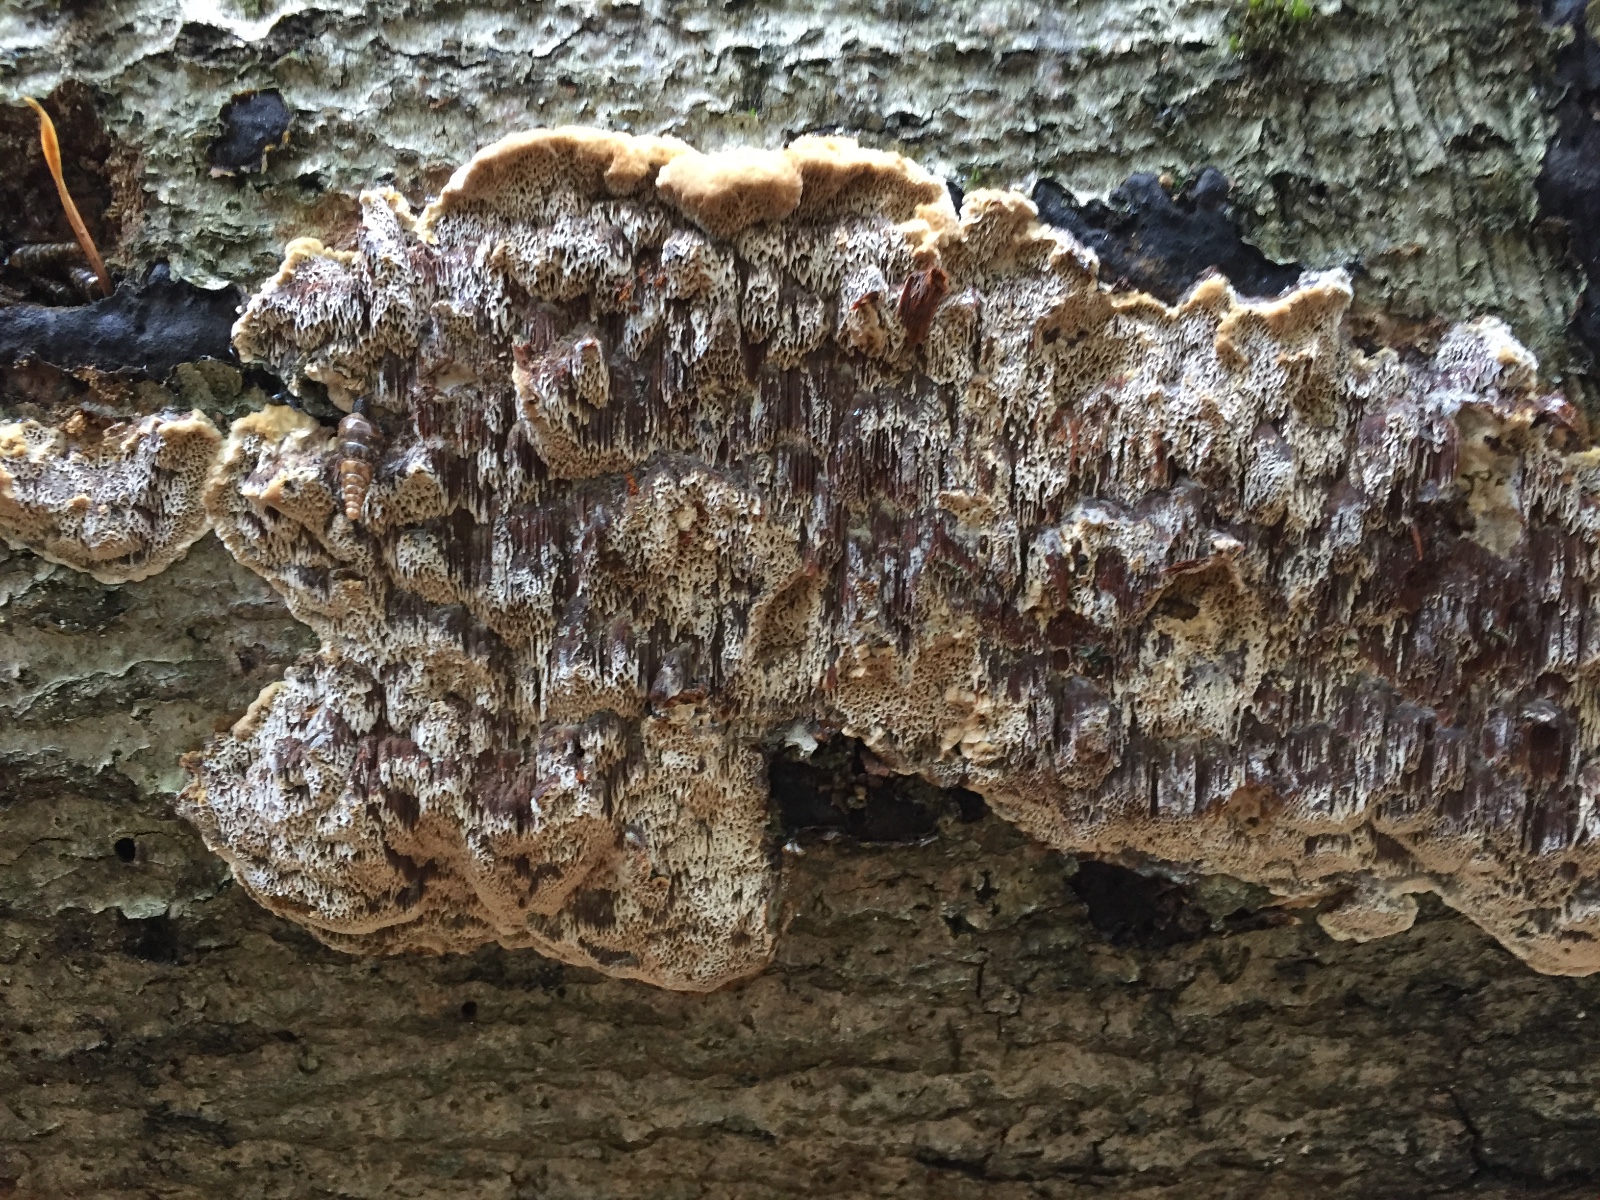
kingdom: Fungi
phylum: Basidiomycota
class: Agaricomycetes
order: Hymenochaetales
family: Hymenochaetaceae
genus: Mensularia
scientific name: Mensularia nodulosa
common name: bøge-spejlporesvamp
